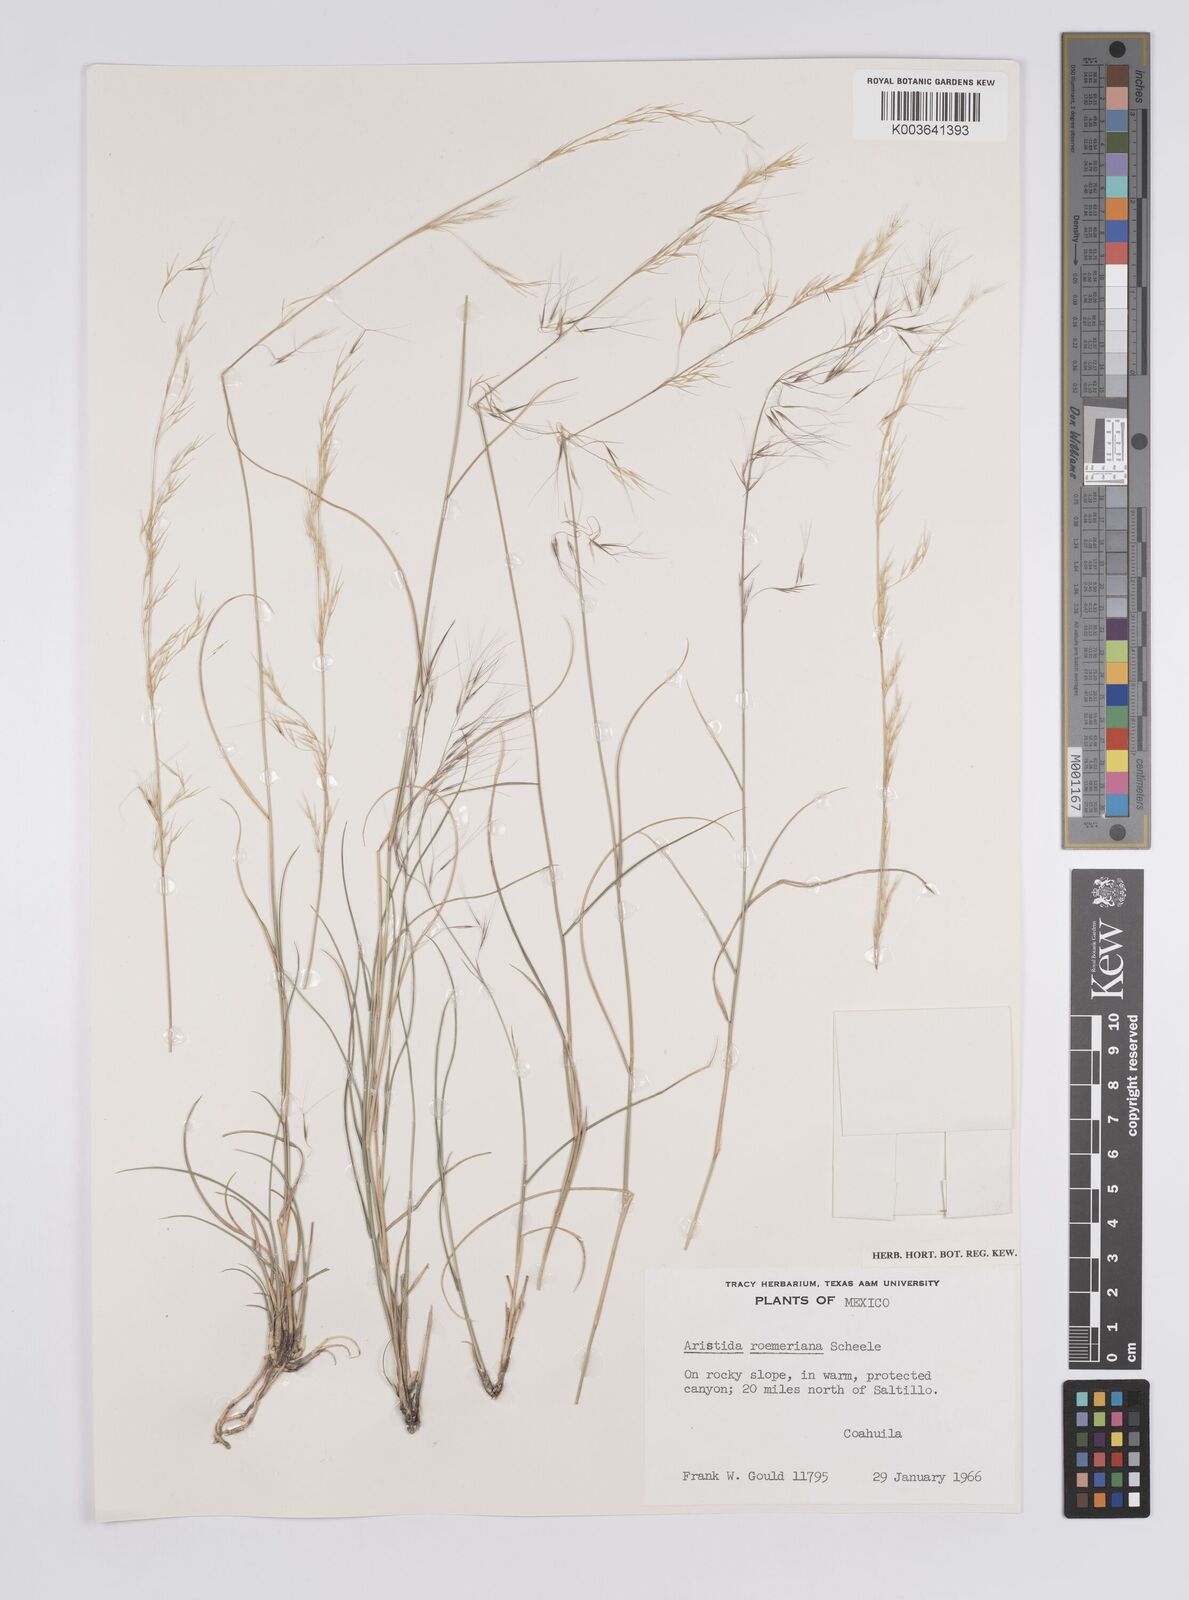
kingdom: Plantae
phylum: Tracheophyta
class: Liliopsida
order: Poales
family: Poaceae
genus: Aristida
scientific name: Aristida purpurea
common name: Purple threeawn
